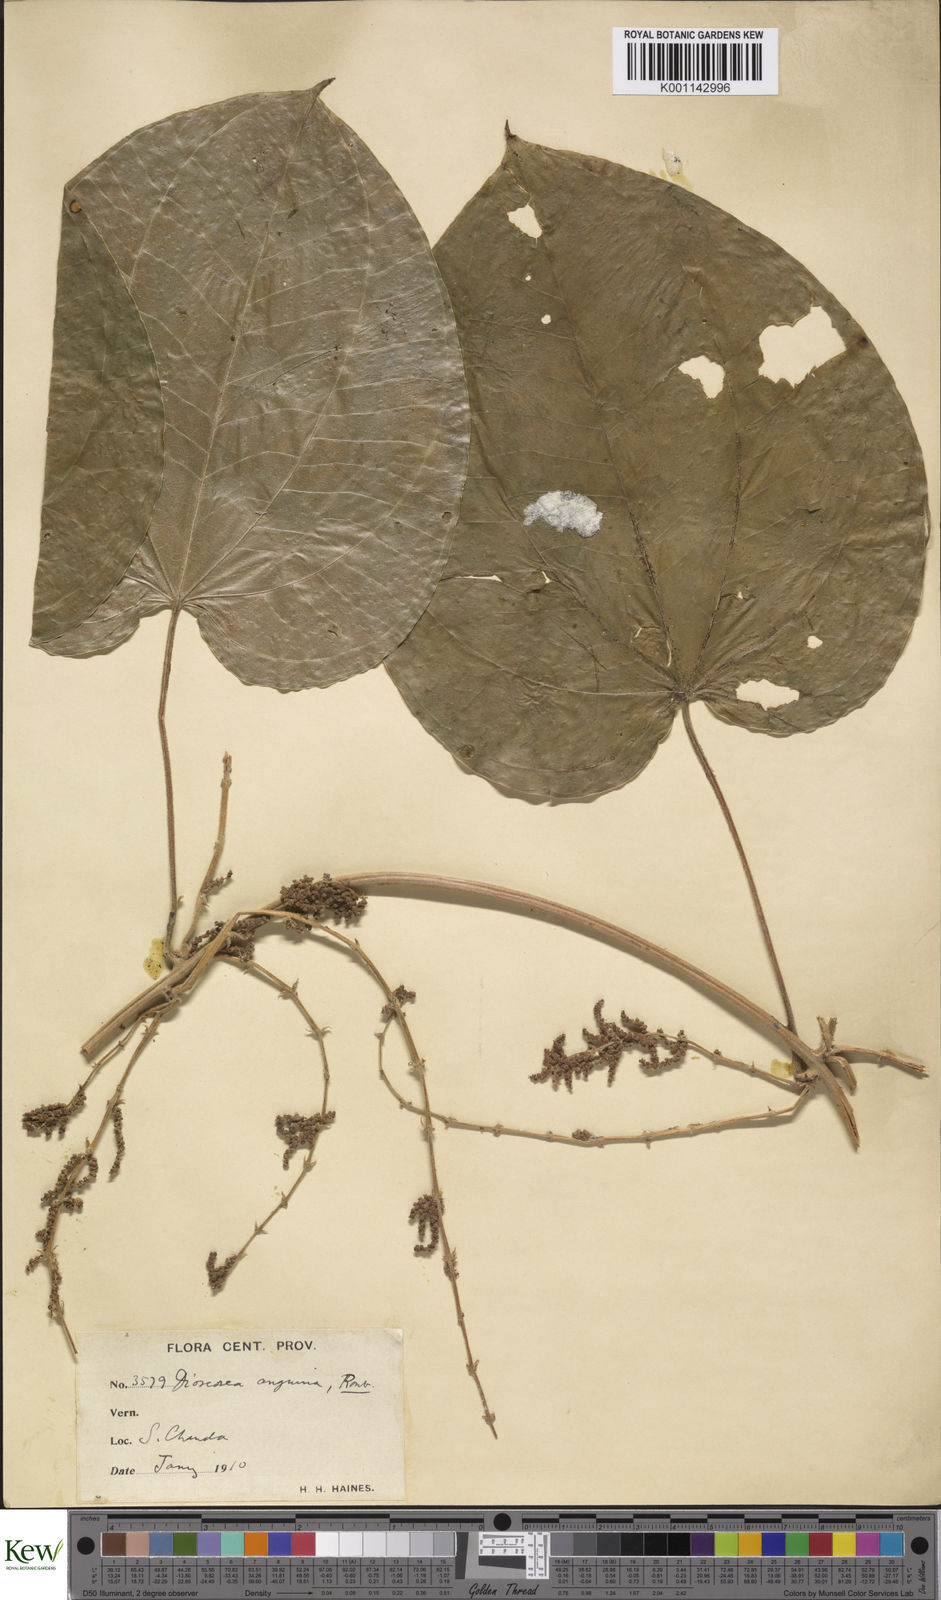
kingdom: Plantae
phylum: Tracheophyta
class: Liliopsida
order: Dioscoreales
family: Dioscoreaceae
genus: Dioscorea
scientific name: Dioscorea pubera
